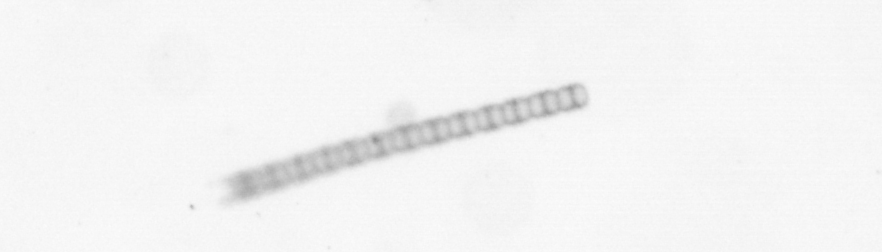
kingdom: Chromista
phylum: Ochrophyta
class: Bacillariophyceae
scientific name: Bacillariophyceae
